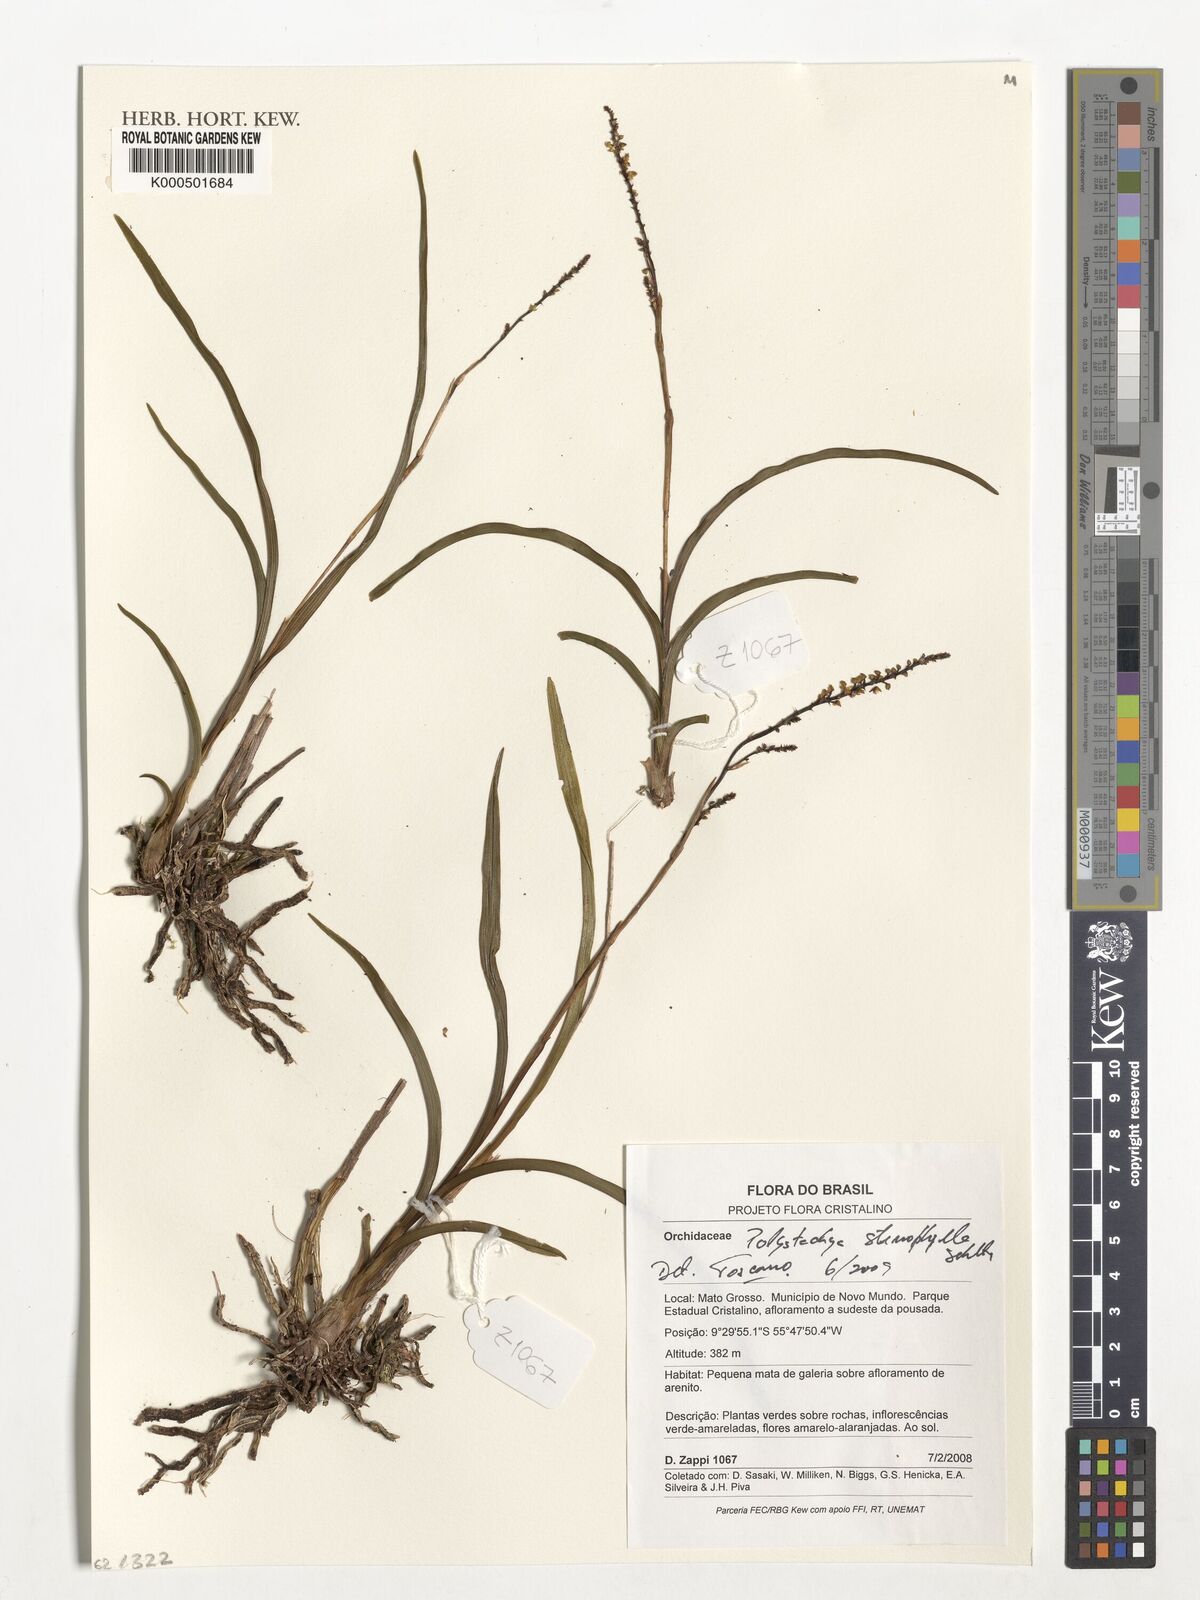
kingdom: Plantae
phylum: Tracheophyta
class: Liliopsida
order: Asparagales
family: Orchidaceae
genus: Polystachya
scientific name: Polystachya stenophylla
